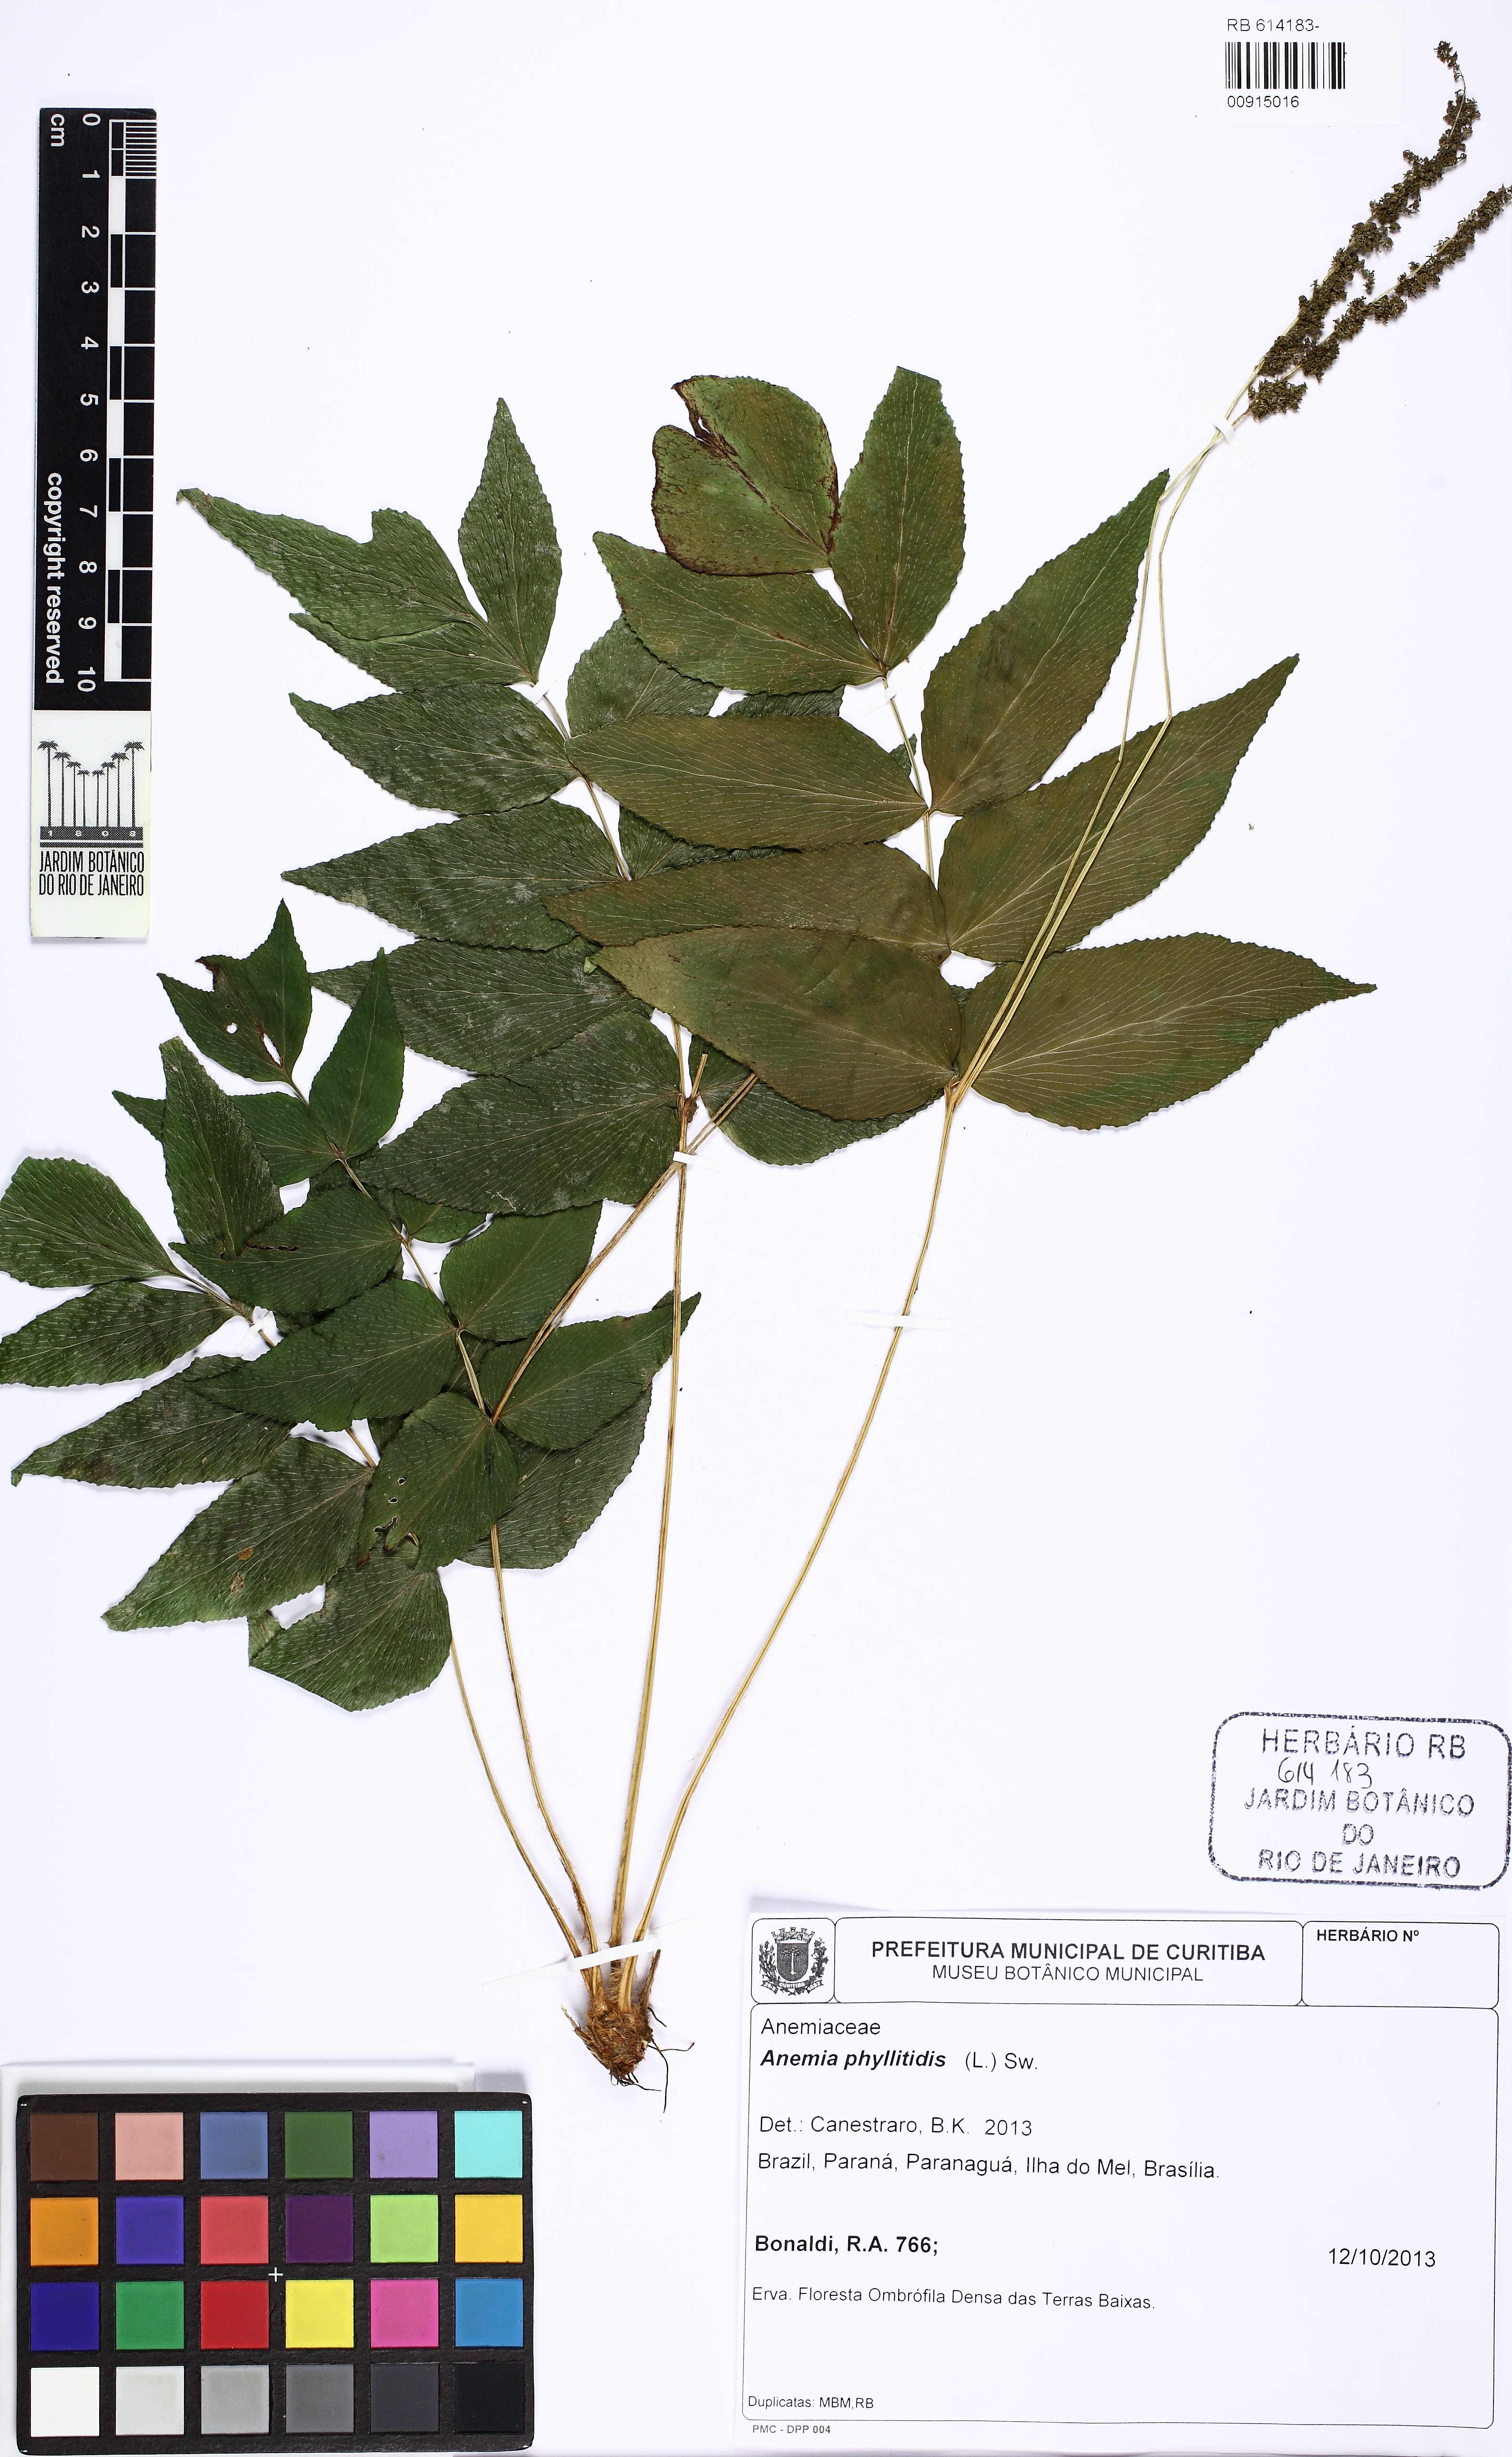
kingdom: Plantae
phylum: Tracheophyta
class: Polypodiopsida
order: Schizaeales
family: Anemiaceae
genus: Anemia
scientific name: Anemia phyllitidis
